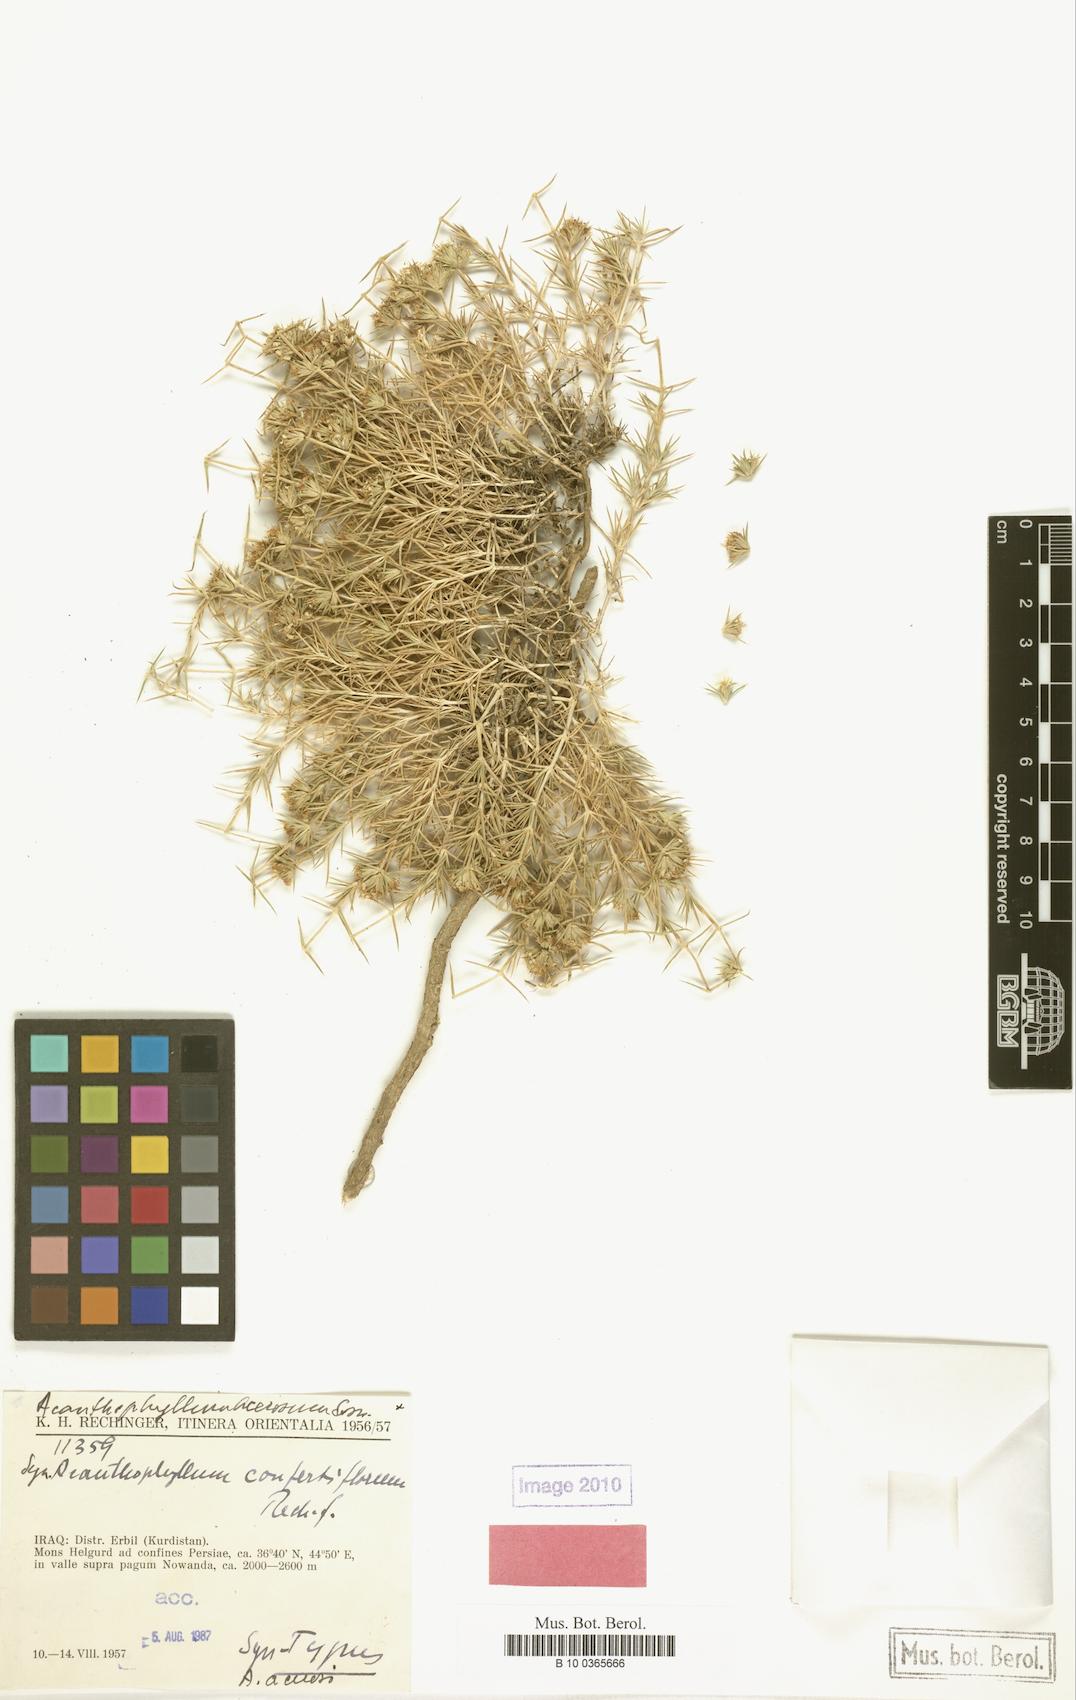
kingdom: Plantae
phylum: Tracheophyta
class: Magnoliopsida
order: Caryophyllales
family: Caryophyllaceae
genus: Acanthophyllum
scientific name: Acanthophyllum acerosum
